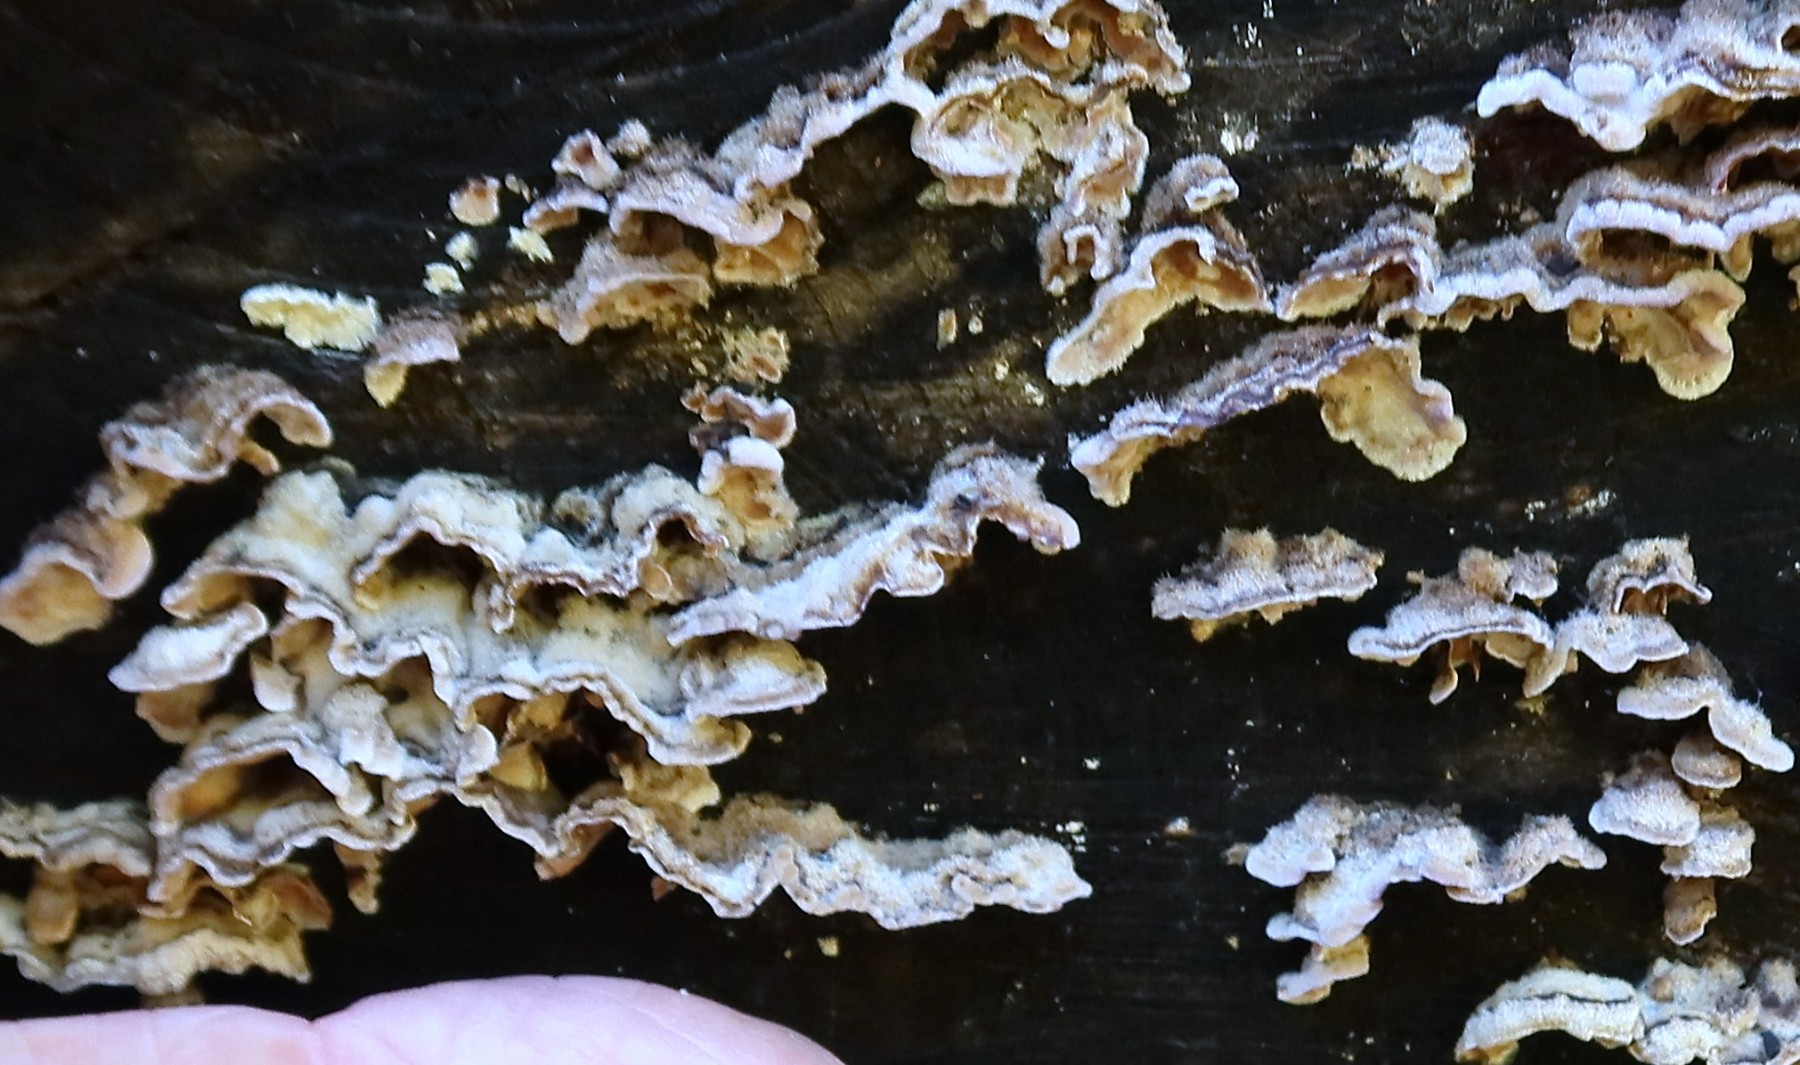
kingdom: Fungi
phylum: Basidiomycota
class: Agaricomycetes
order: Russulales
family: Stereaceae
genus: Stereum
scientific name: Stereum hirsutum
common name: håret lædersvamp
